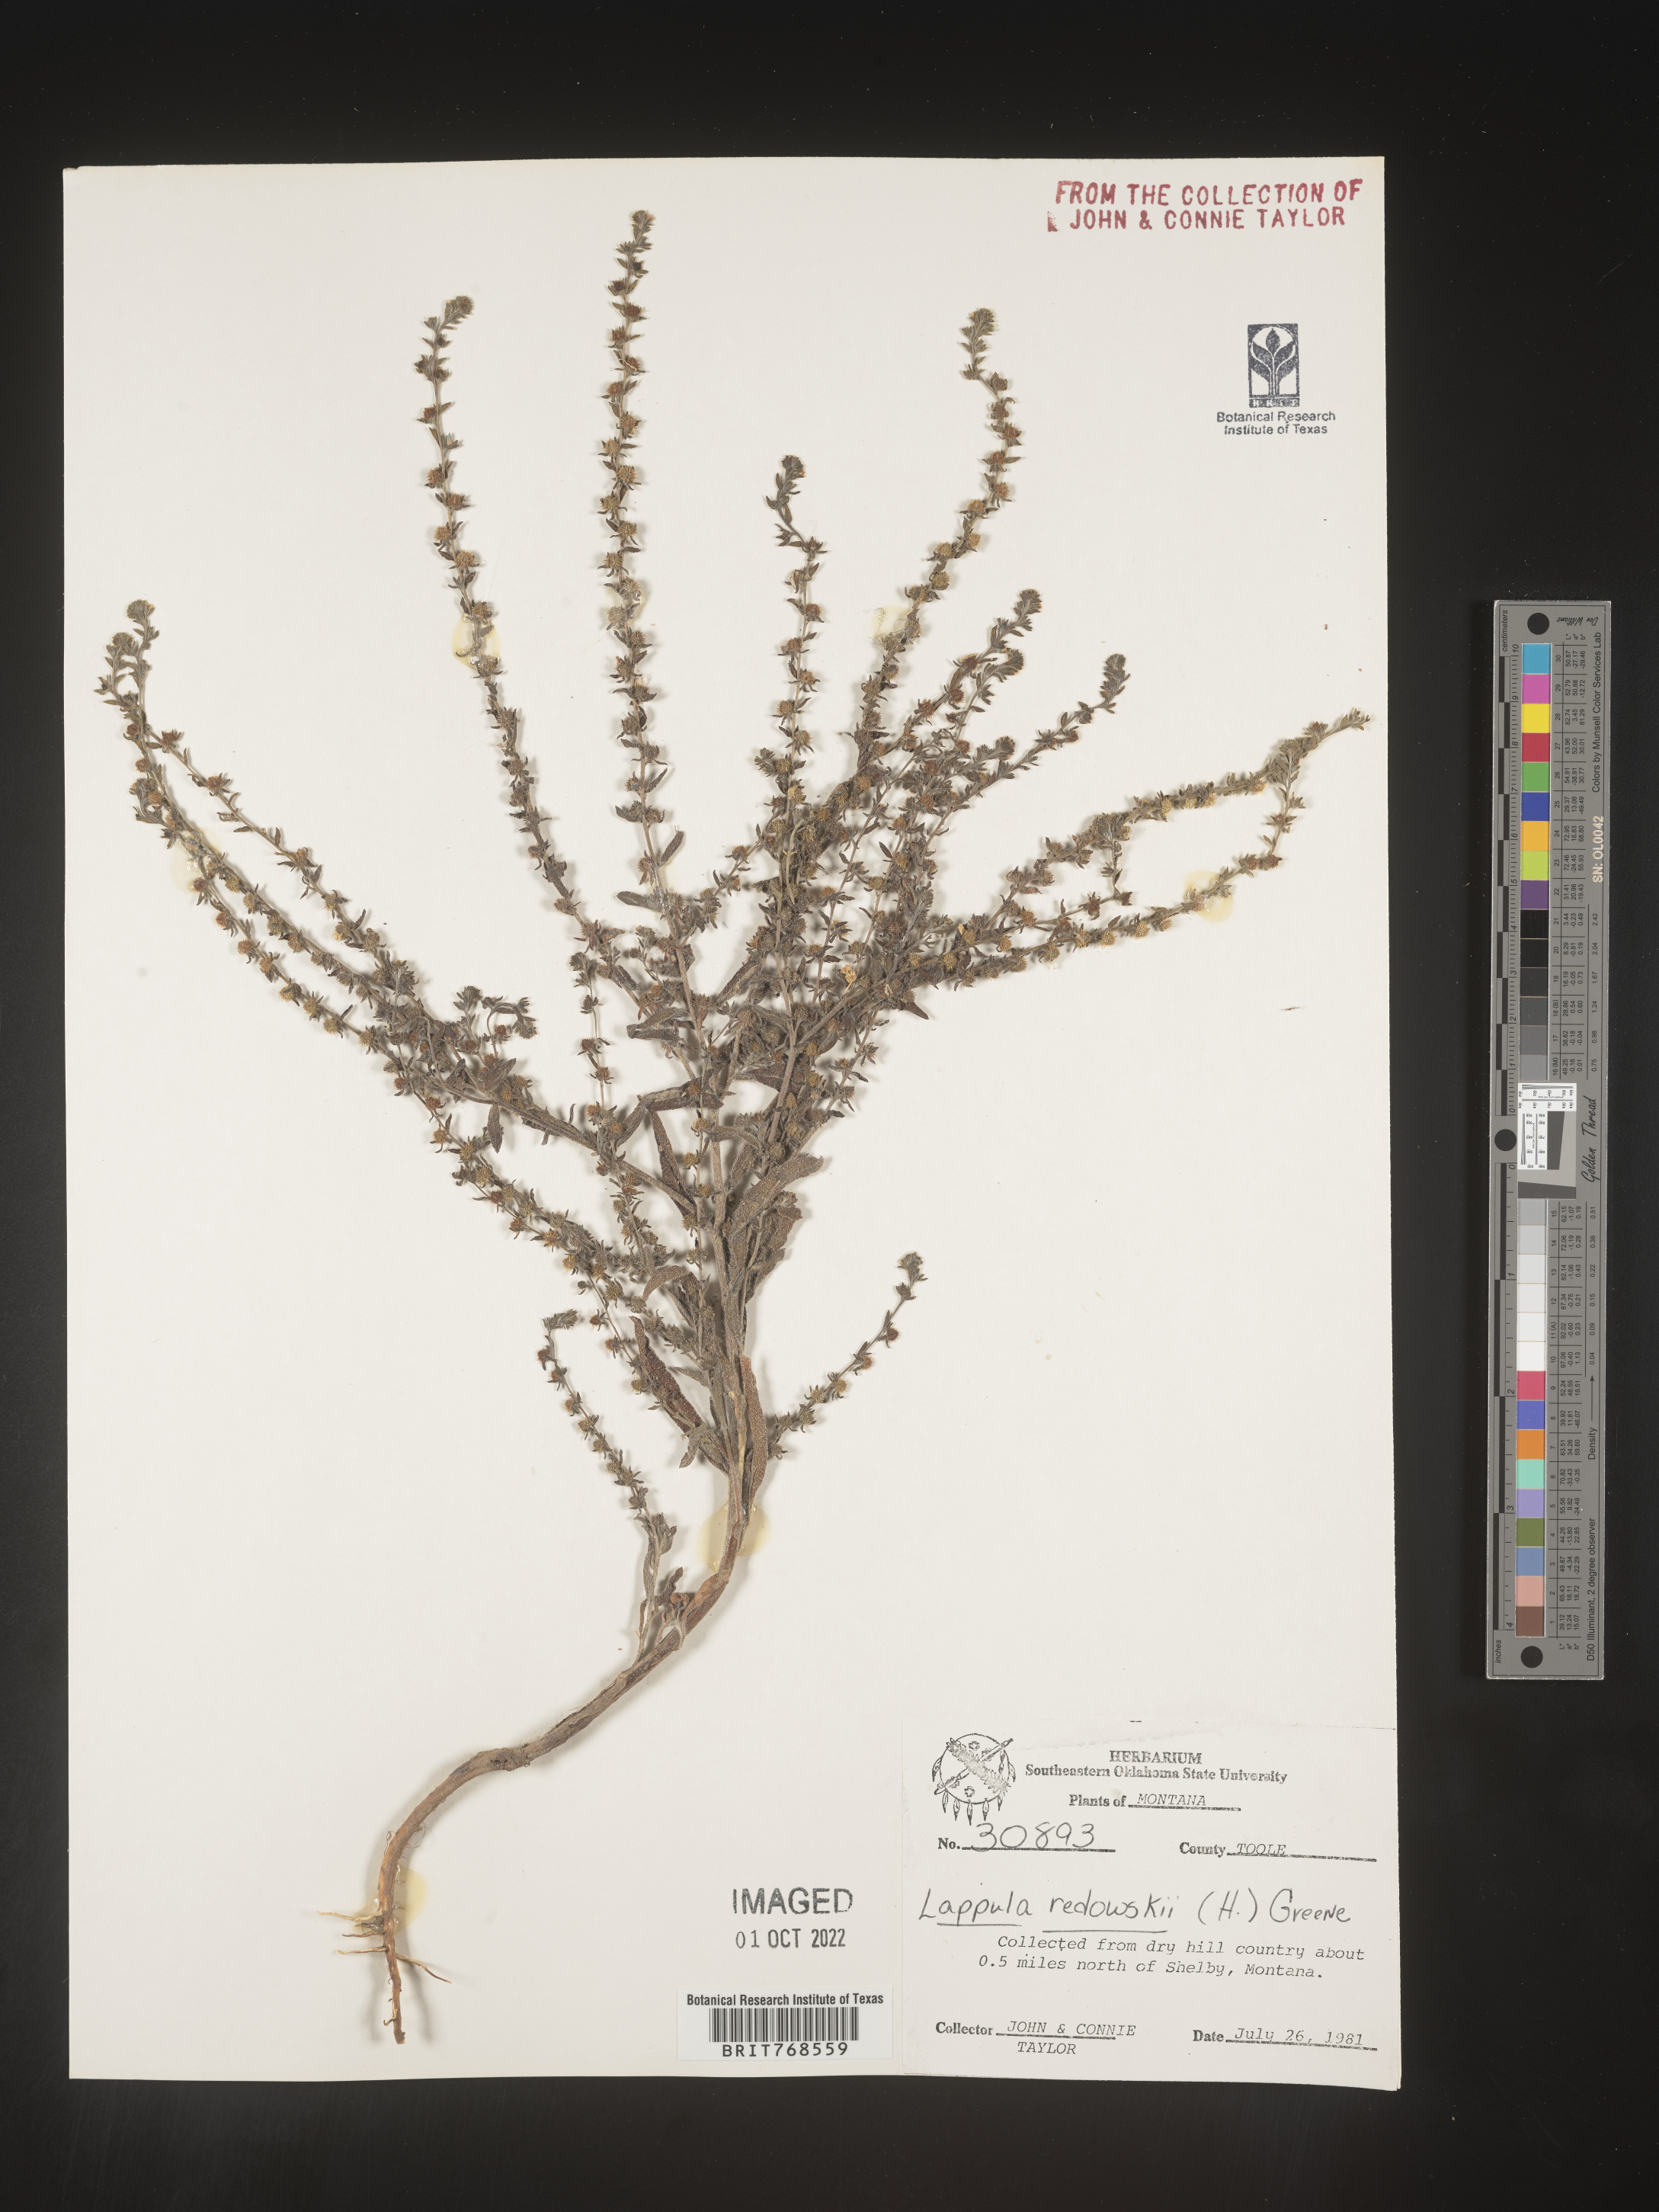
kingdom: Plantae
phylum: Tracheophyta
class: Magnoliopsida
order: Boraginales
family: Boraginaceae
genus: Lappula
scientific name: Lappula redowskii
